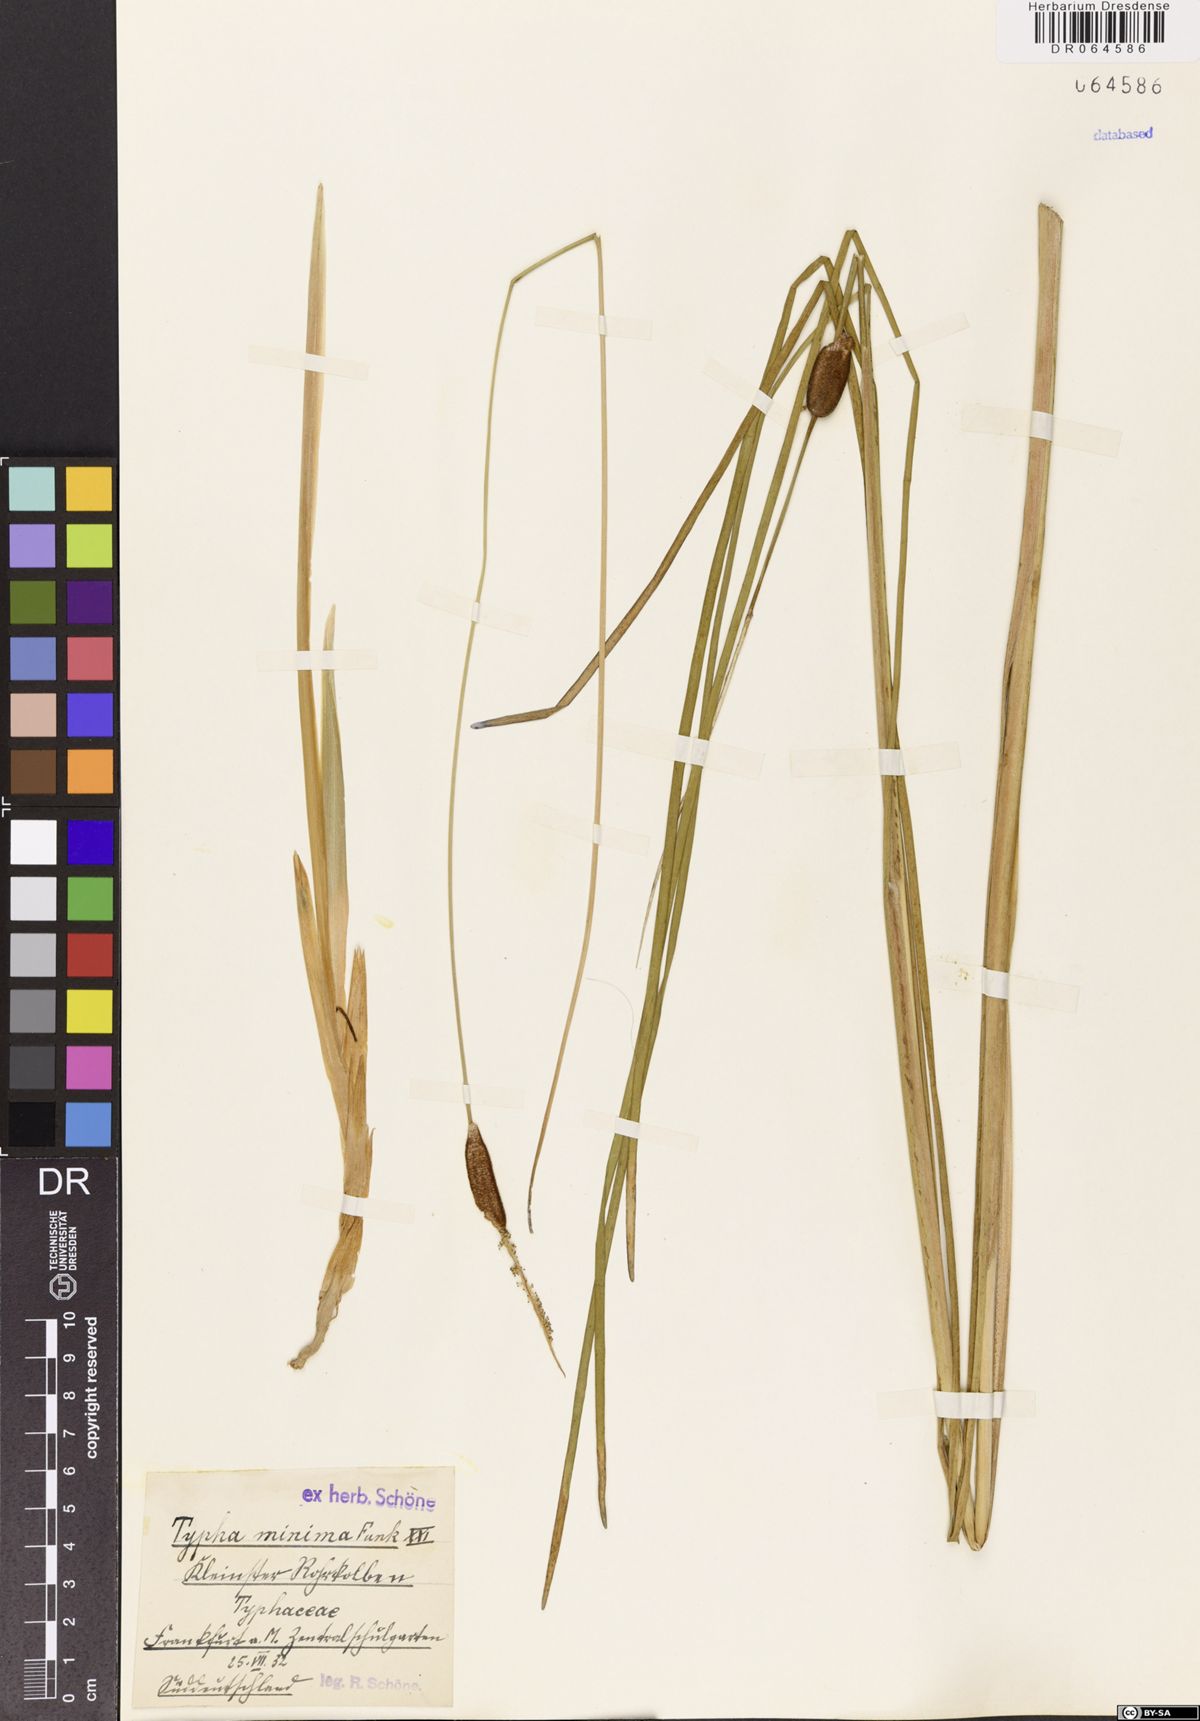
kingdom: Plantae
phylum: Tracheophyta
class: Liliopsida
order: Poales
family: Typhaceae
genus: Typha
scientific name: Typha minima
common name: Dwarf bulrush
